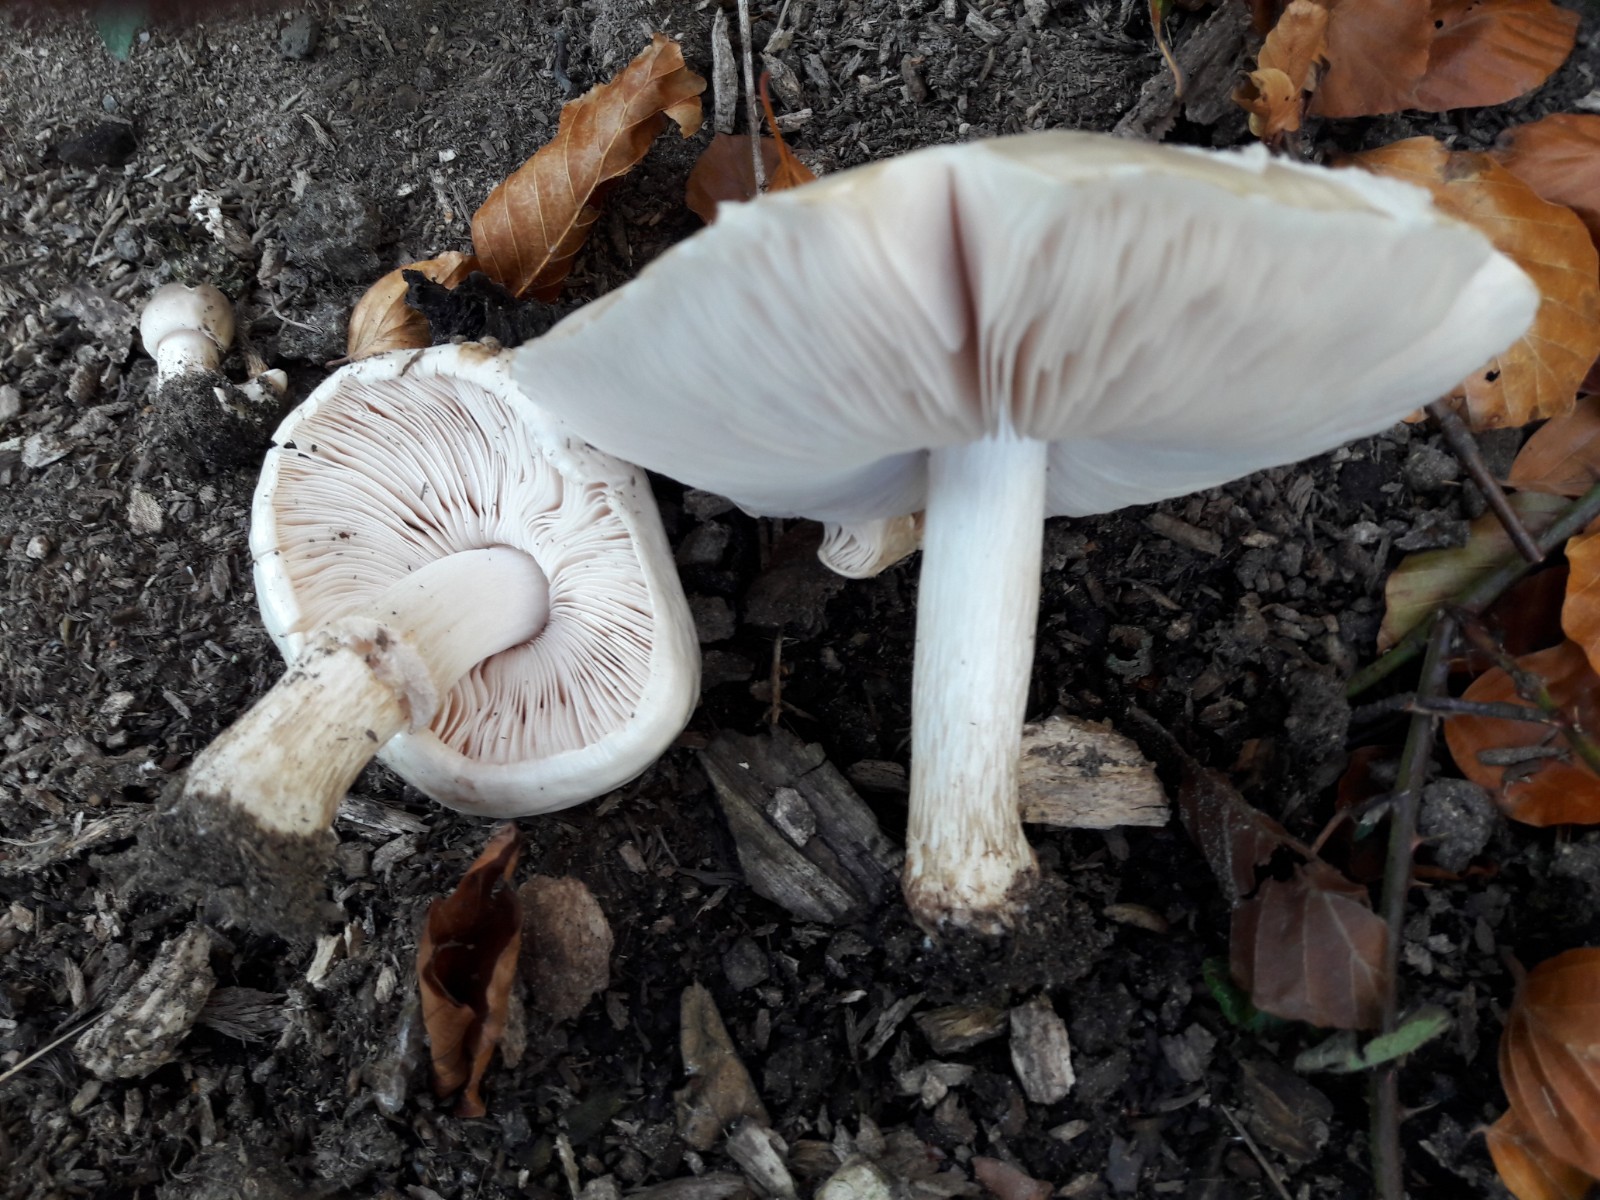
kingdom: Fungi
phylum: Basidiomycota
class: Agaricomycetes
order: Agaricales
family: Pluteaceae
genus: Pluteus
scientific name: Pluteus petasatus
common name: savsmulds-skærmhat
